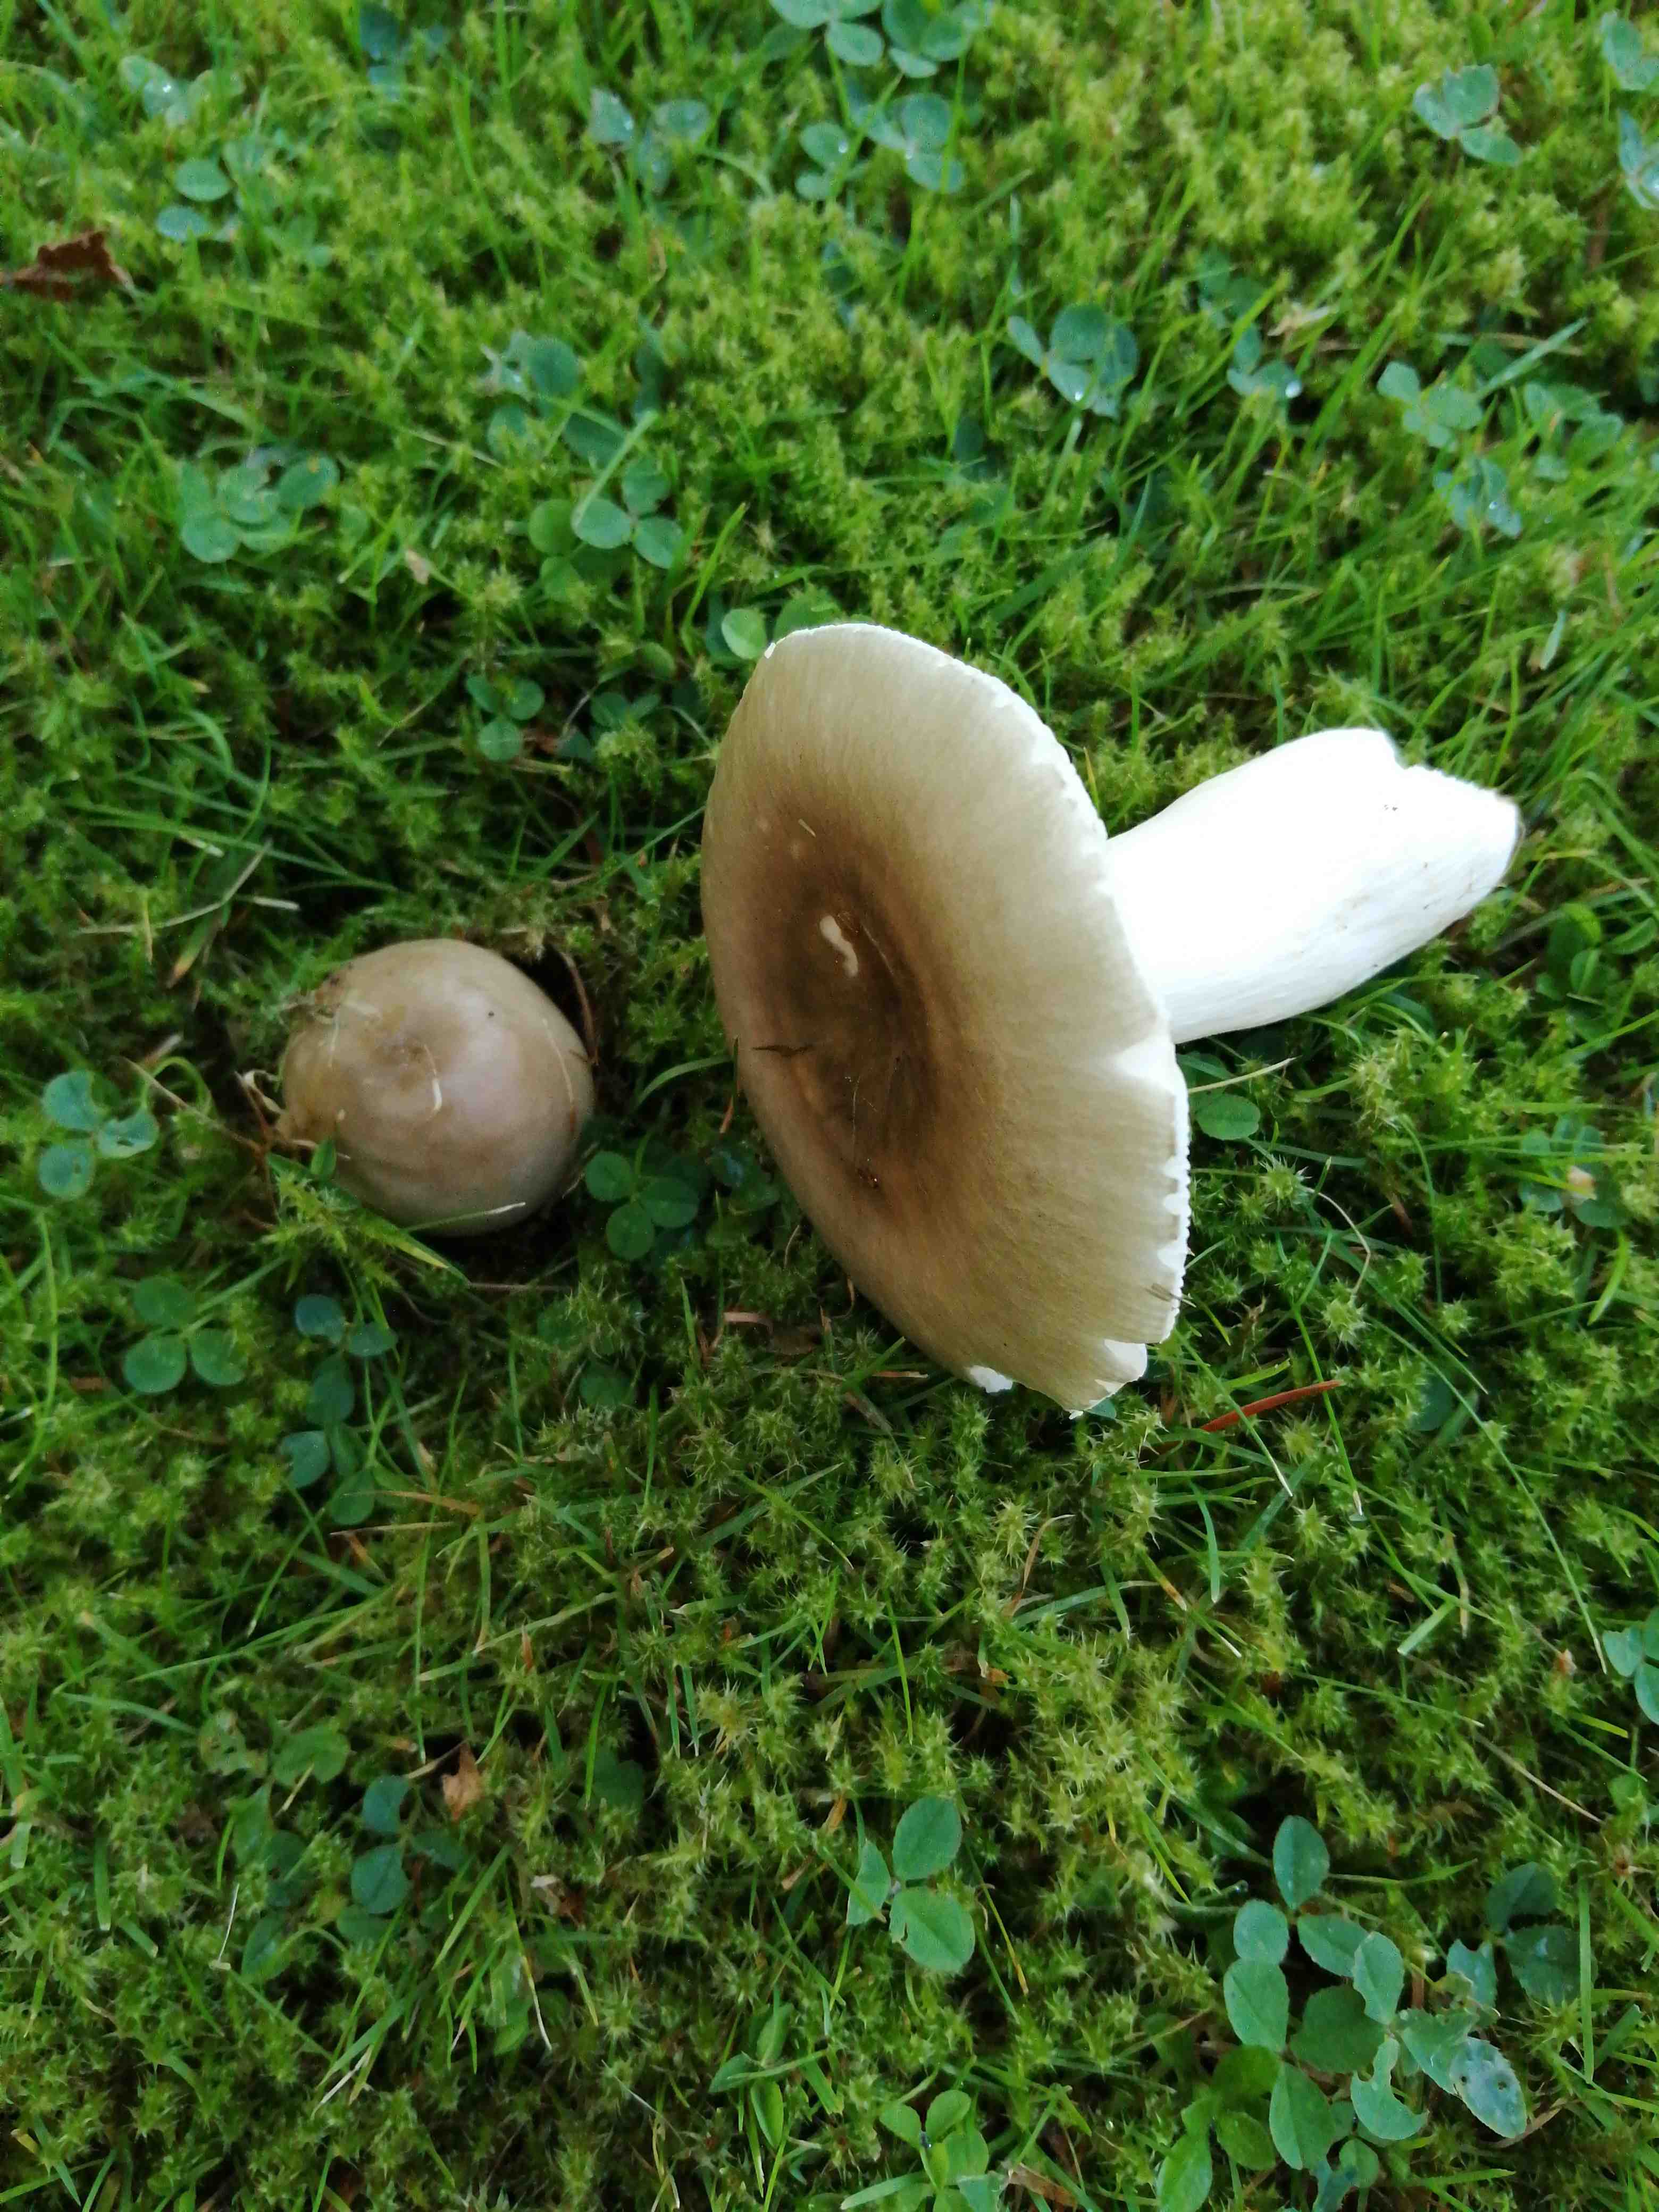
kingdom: Fungi
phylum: Basidiomycota
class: Agaricomycetes
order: Russulales
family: Russulaceae
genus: Russula
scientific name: Russula aeruginea
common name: græsgrøn skørhat
